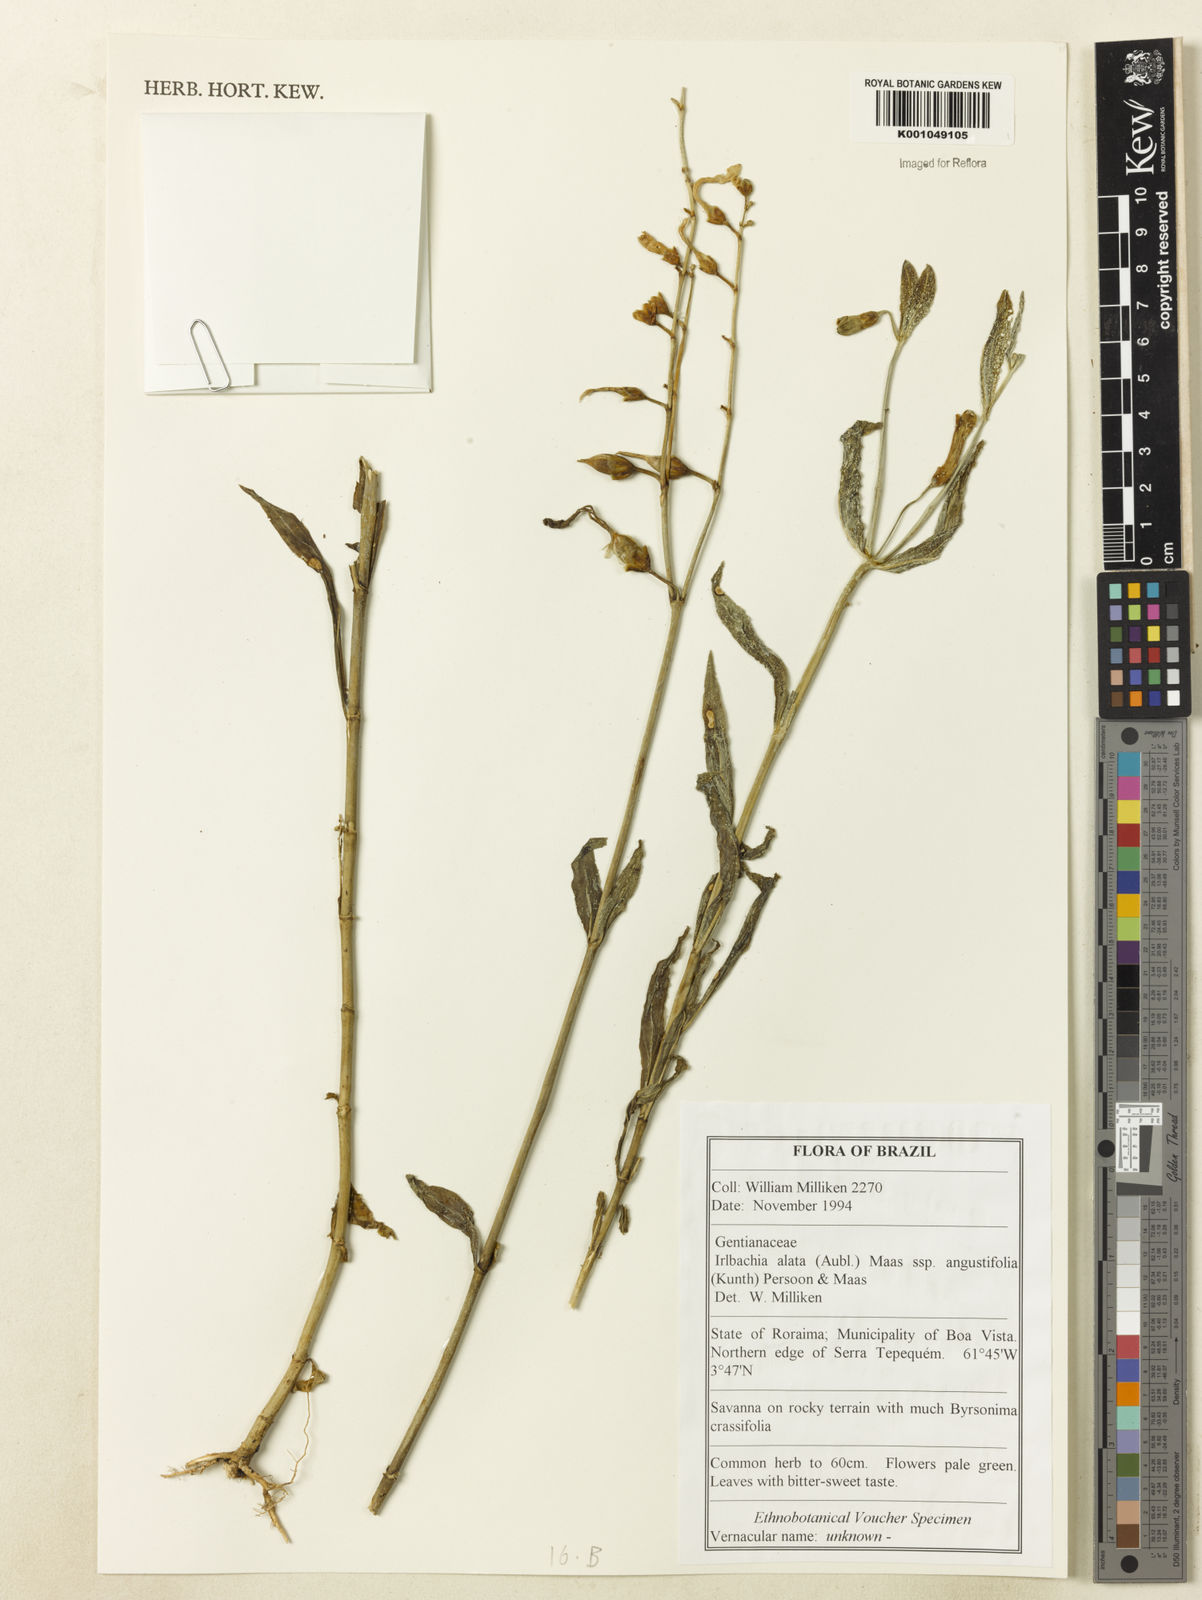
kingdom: Plantae
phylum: Tracheophyta
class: Magnoliopsida
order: Gentianales
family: Gentianaceae
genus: Chelonanthus
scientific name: Chelonanthus alatus
